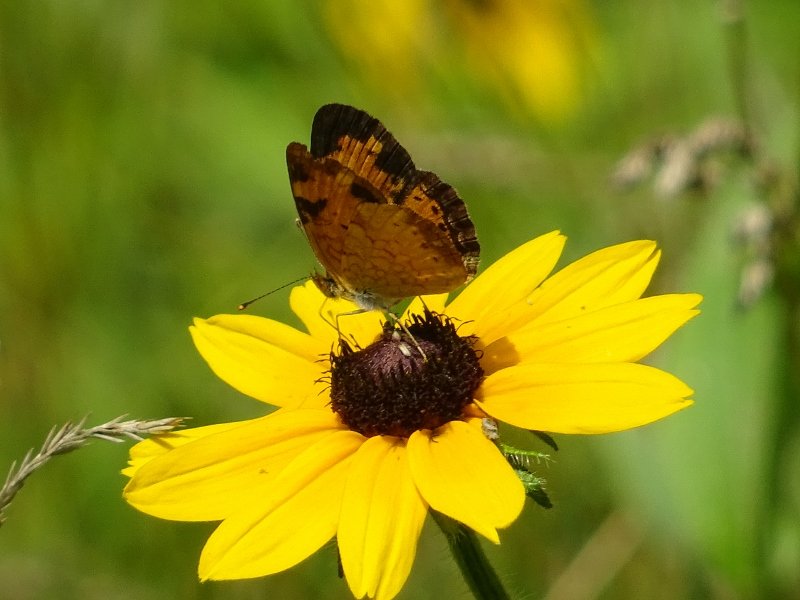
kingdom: Animalia
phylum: Arthropoda
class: Insecta
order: Lepidoptera
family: Nymphalidae
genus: Phyciodes
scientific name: Phyciodes tharos
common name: Northern Crescent
